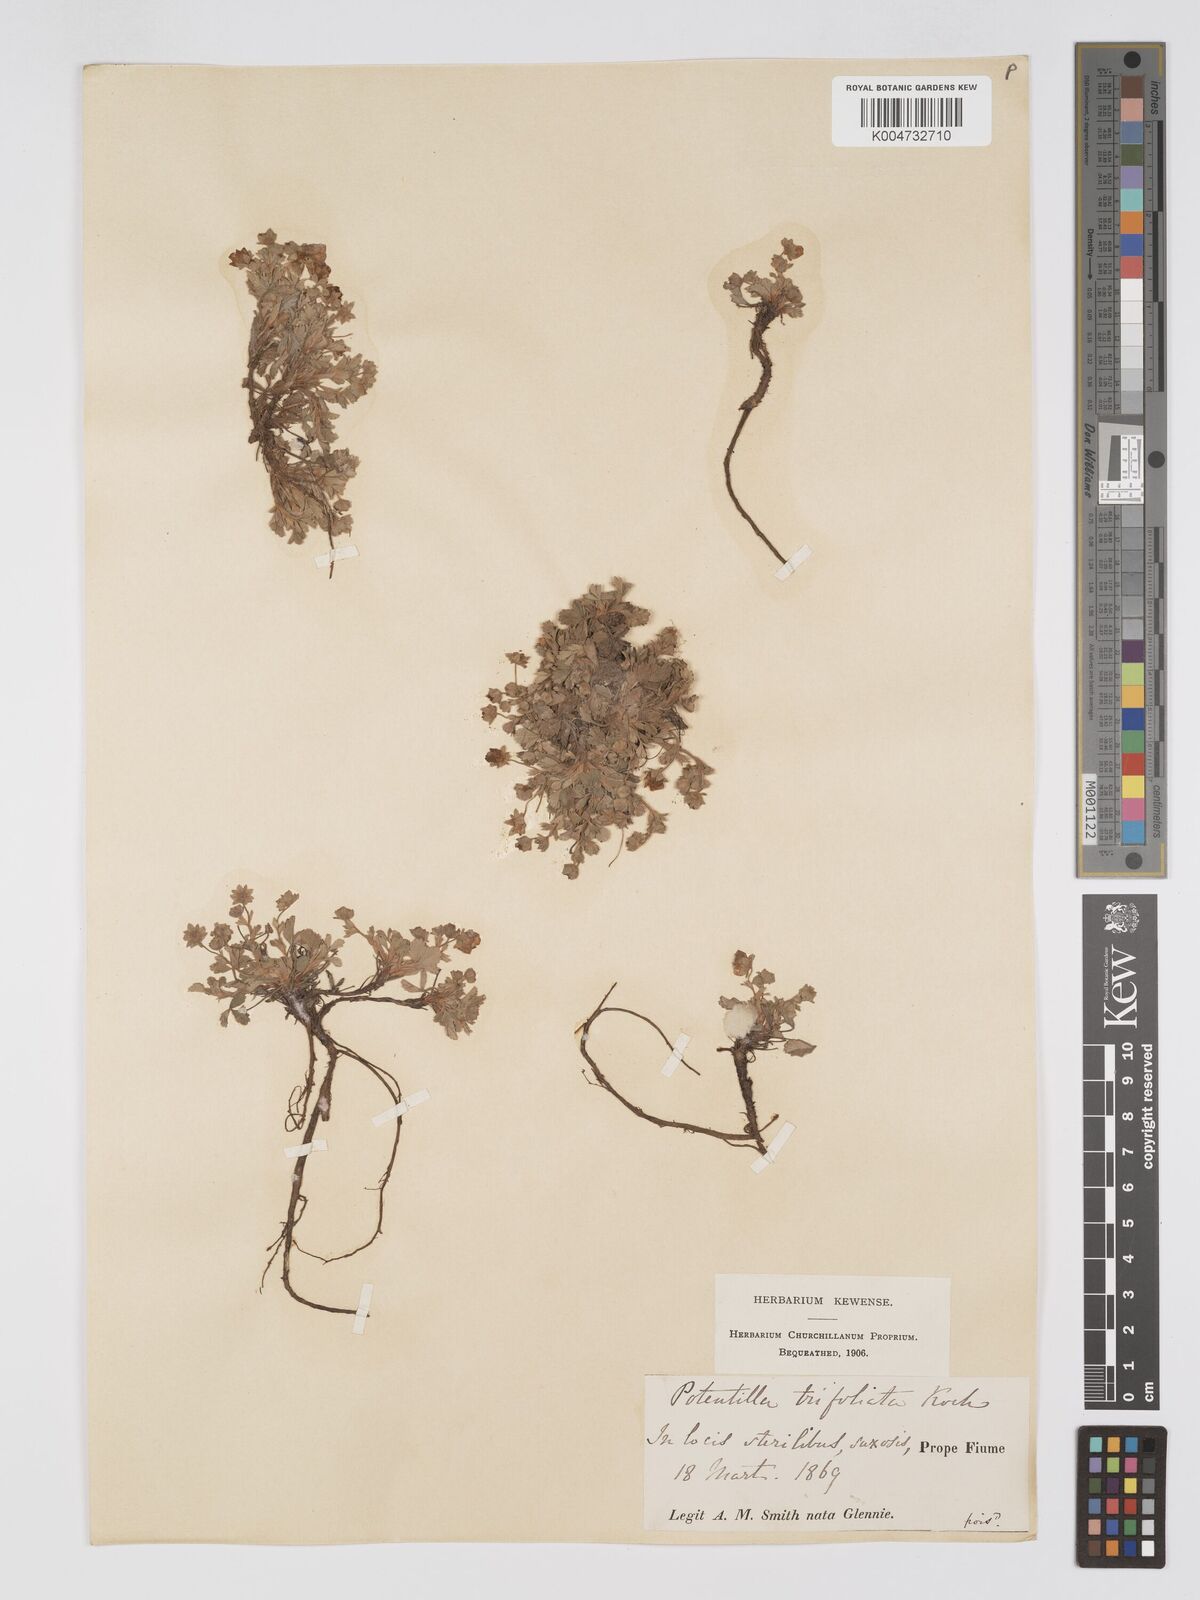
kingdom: Plantae
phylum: Tracheophyta
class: Magnoliopsida
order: Rosales
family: Rosaceae
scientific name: Rosaceae
